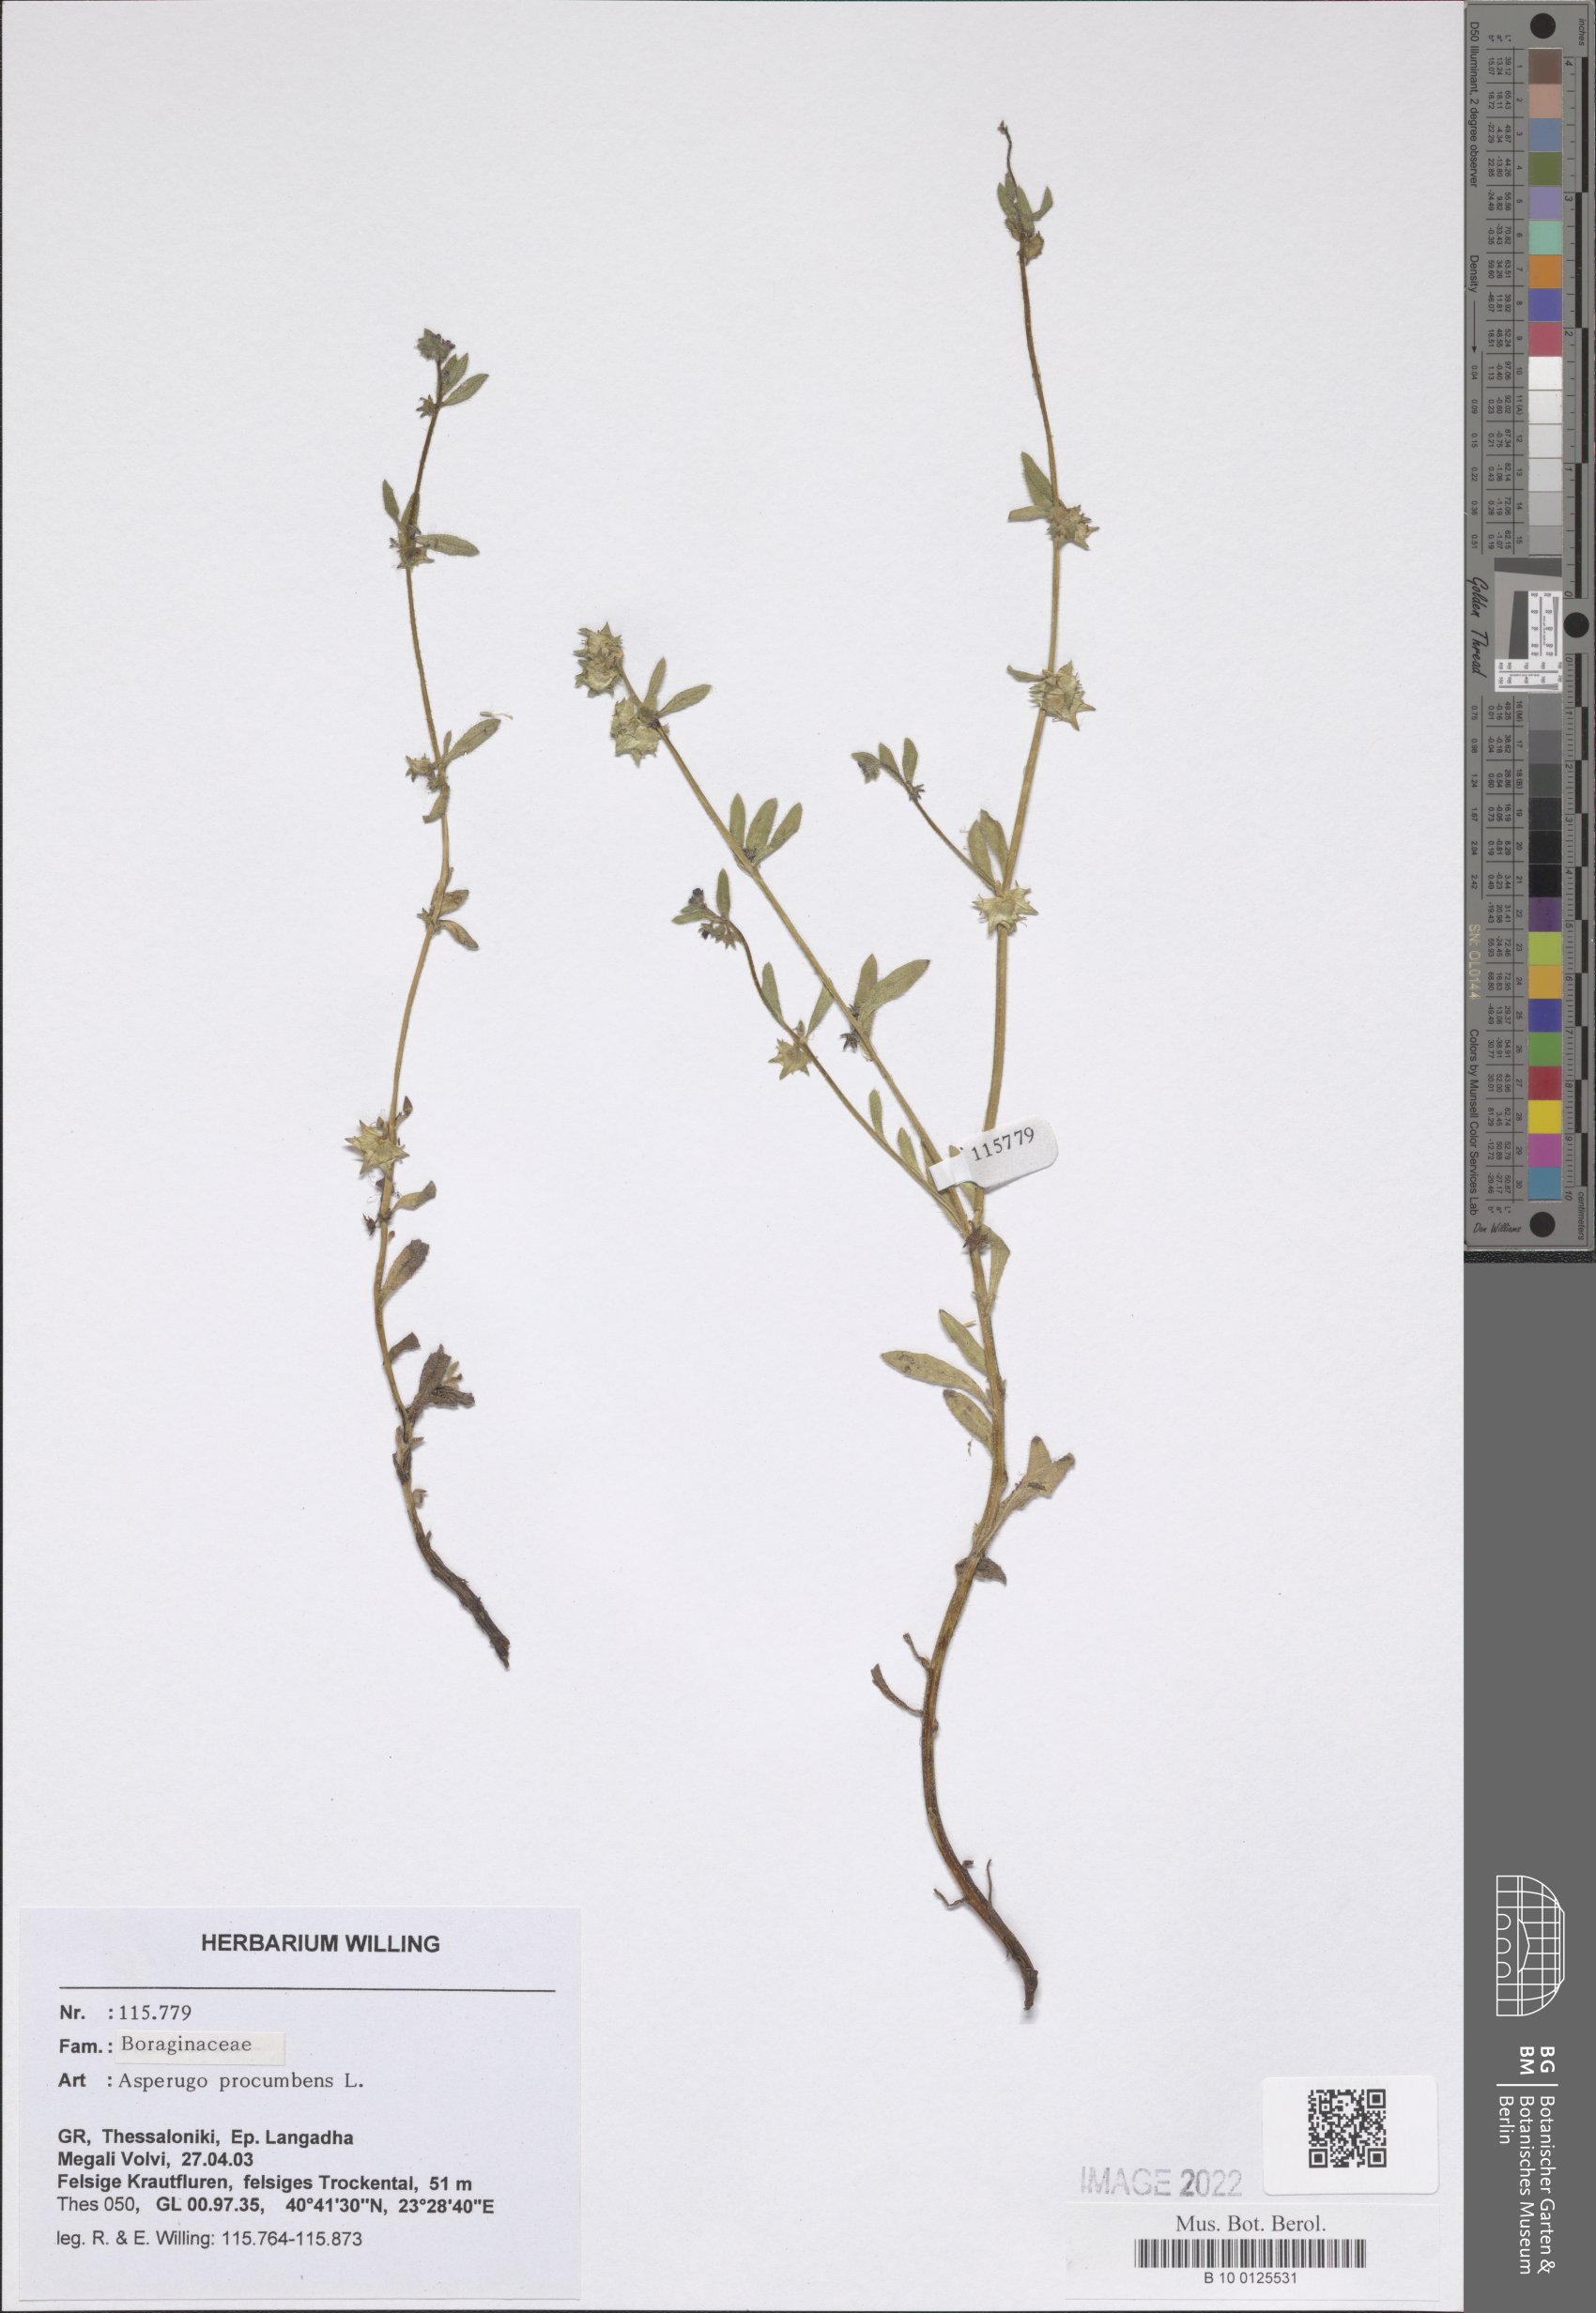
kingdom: Plantae
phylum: Tracheophyta
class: Magnoliopsida
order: Boraginales
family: Boraginaceae
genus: Asperugo
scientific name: Asperugo procumbens
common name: Madwort
